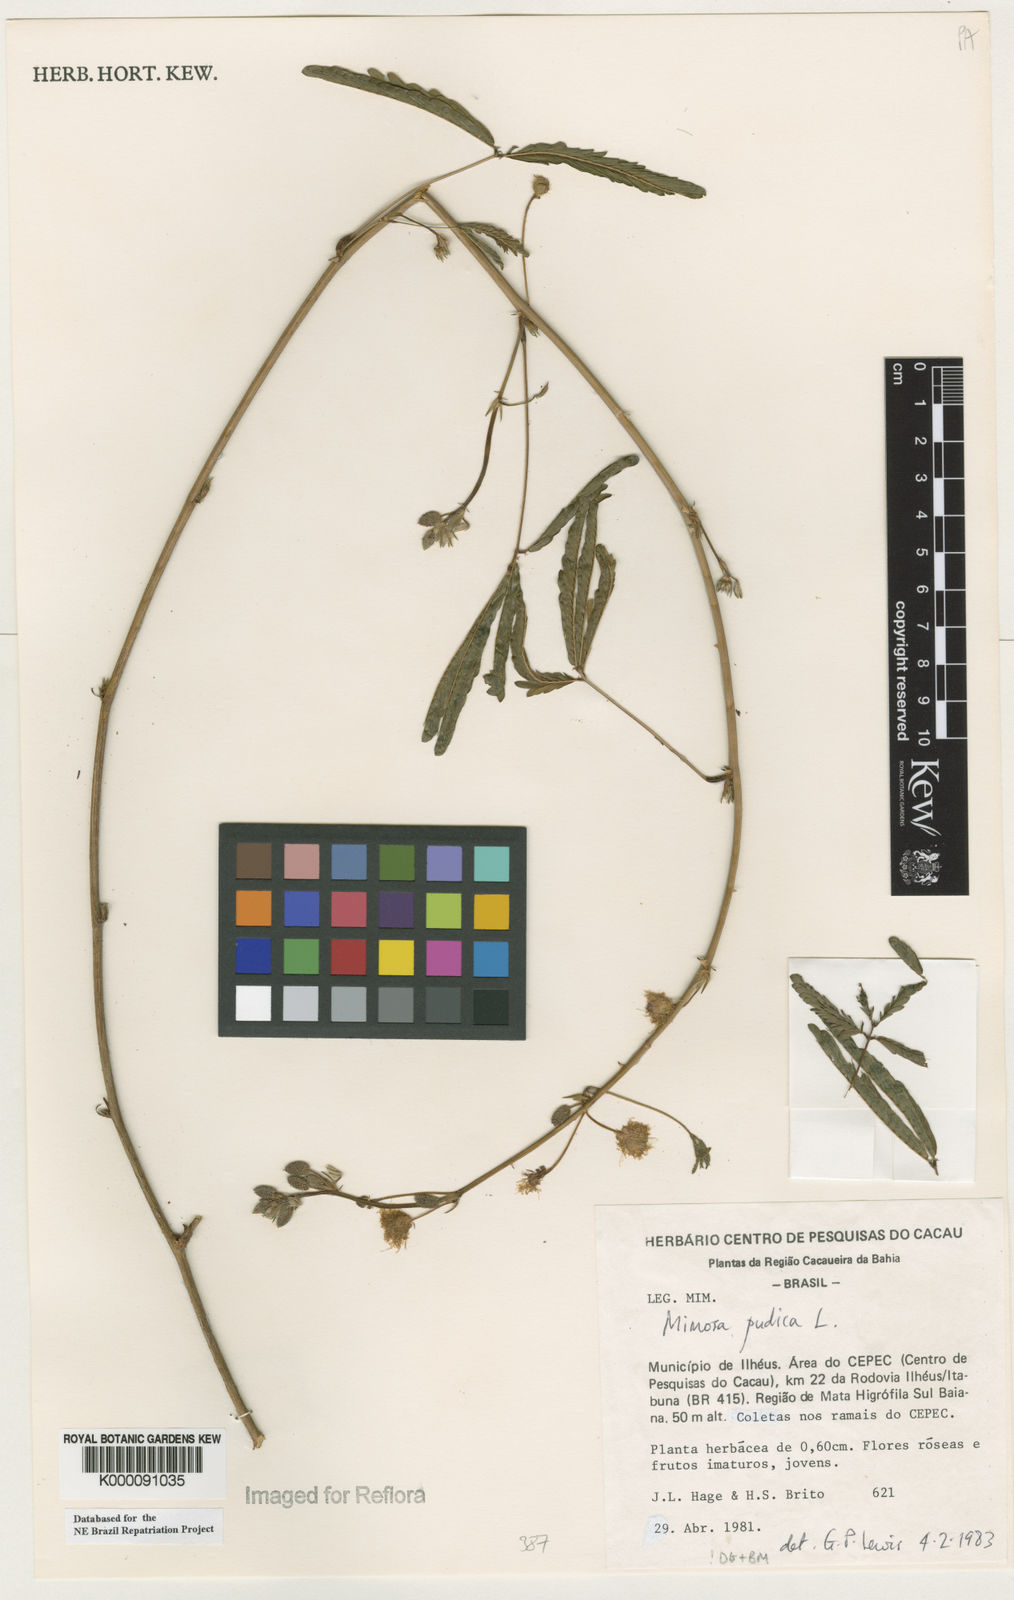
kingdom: Plantae
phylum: Tracheophyta
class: Magnoliopsida
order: Fabales
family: Fabaceae
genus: Mimosa
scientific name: Mimosa pudica
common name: Sensitive plant
